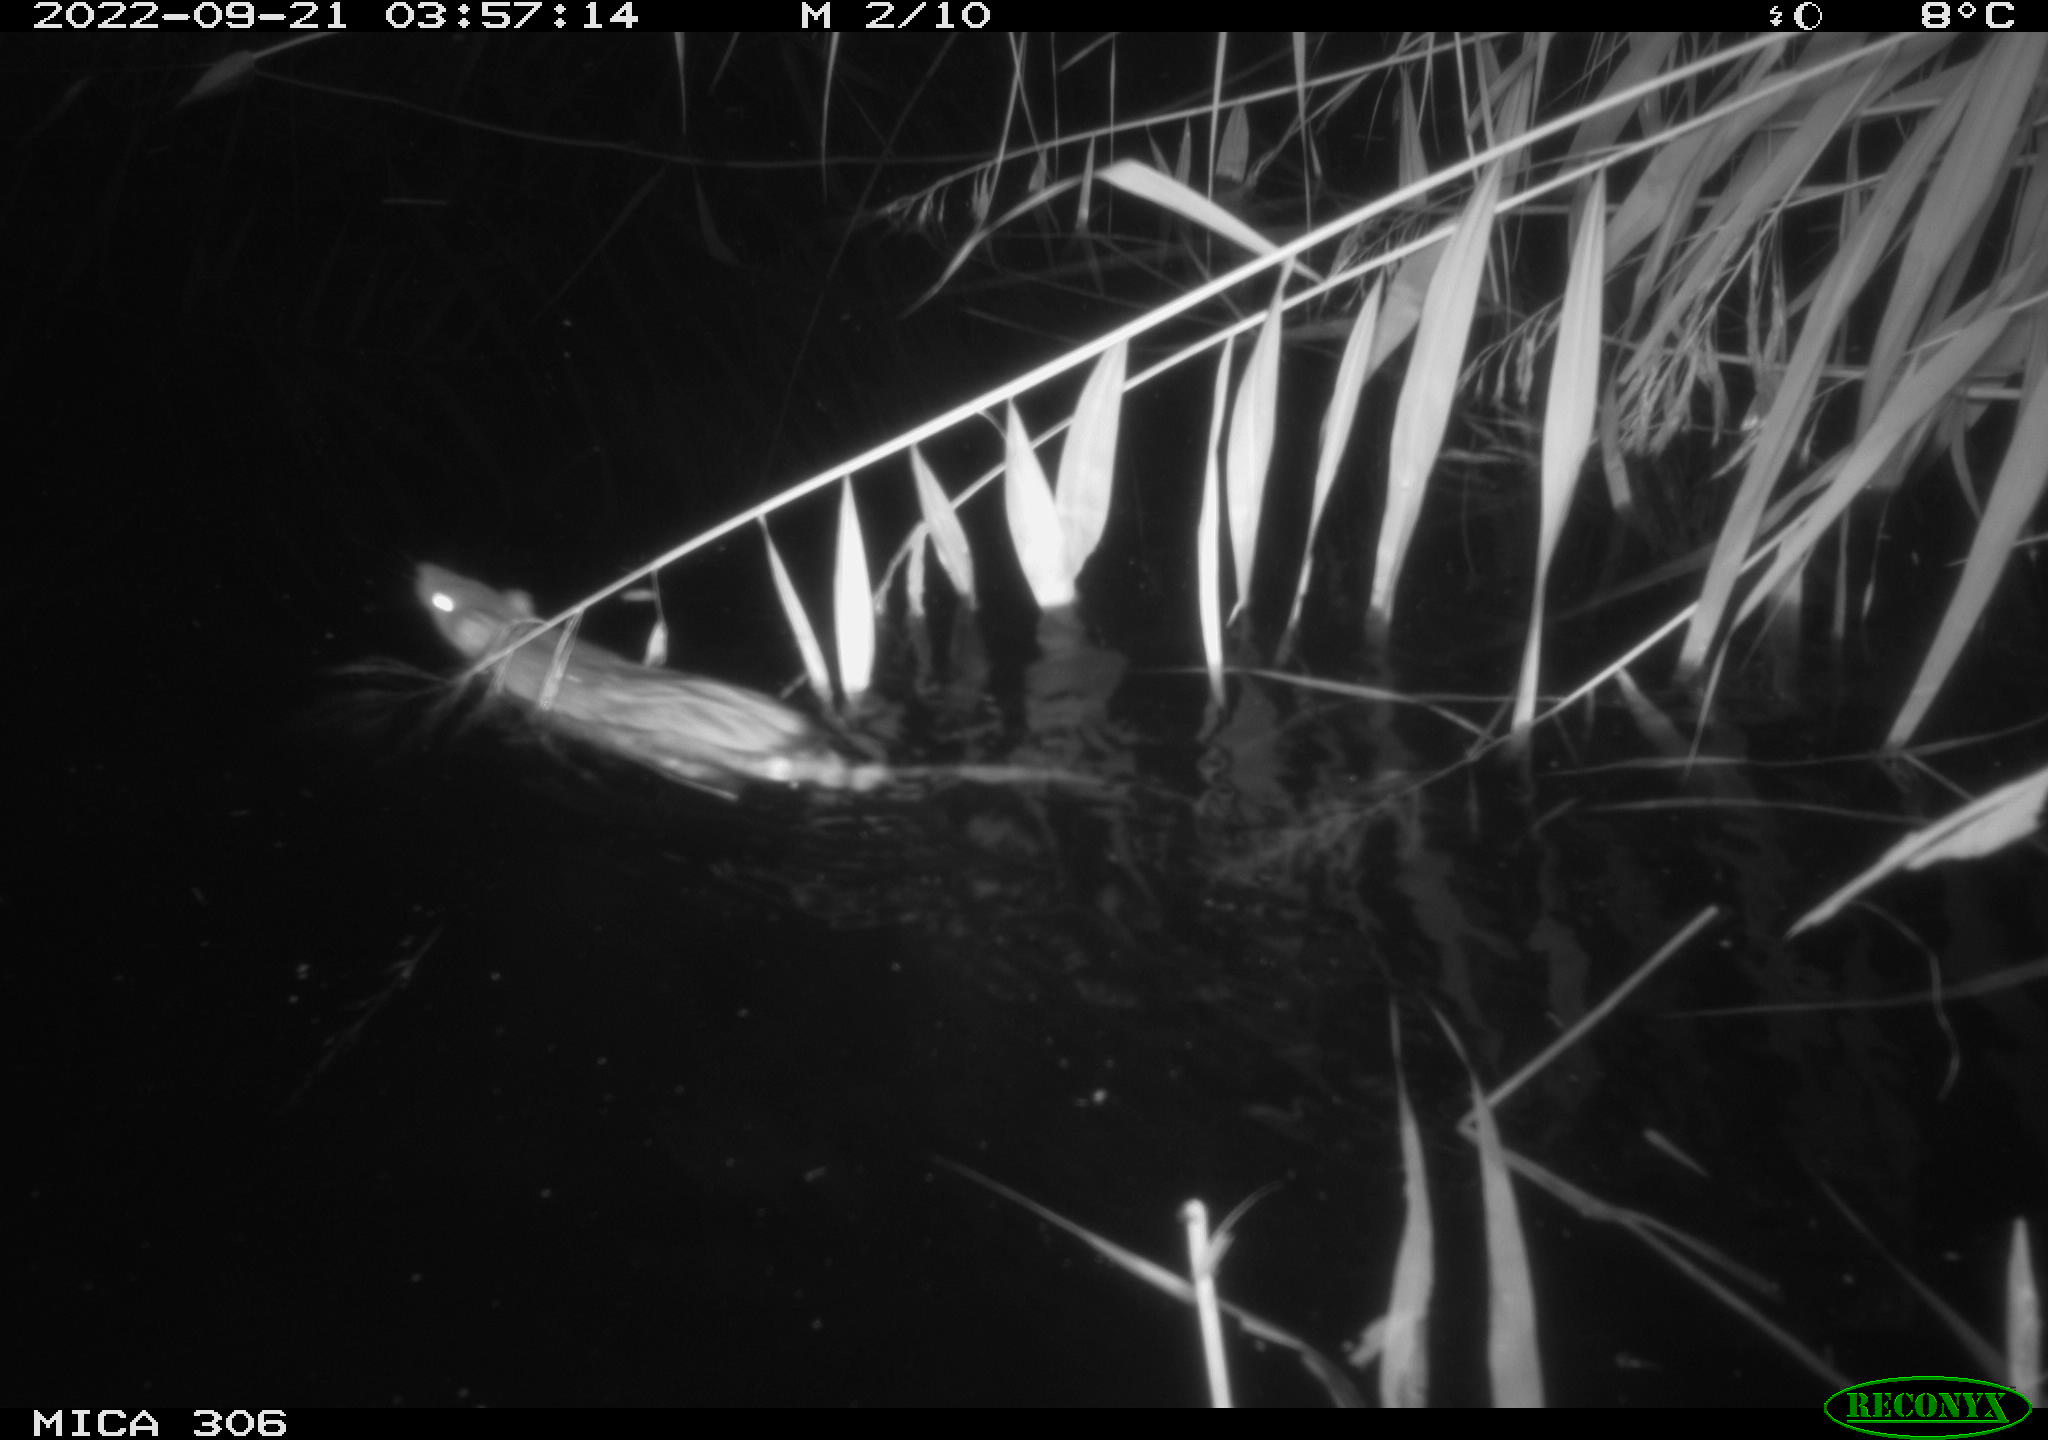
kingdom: Animalia
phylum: Chordata
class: Mammalia
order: Rodentia
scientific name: Rodentia
